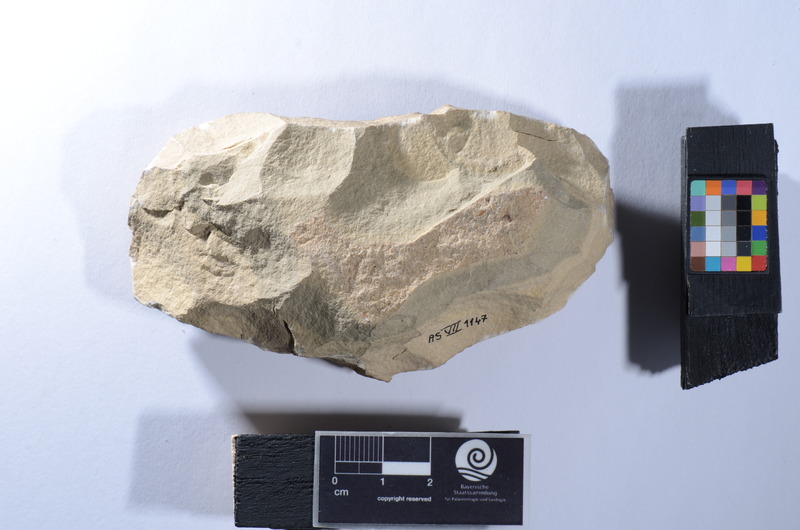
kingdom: Animalia
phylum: Chordata
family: Saurichthyidae
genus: Saurichthys
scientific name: Saurichthys tenuirostris
